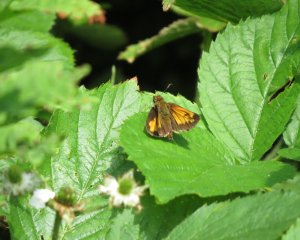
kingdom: Animalia
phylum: Arthropoda
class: Insecta
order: Lepidoptera
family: Hesperiidae
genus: Lon
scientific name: Lon hobomok
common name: Hobomok Skipper
